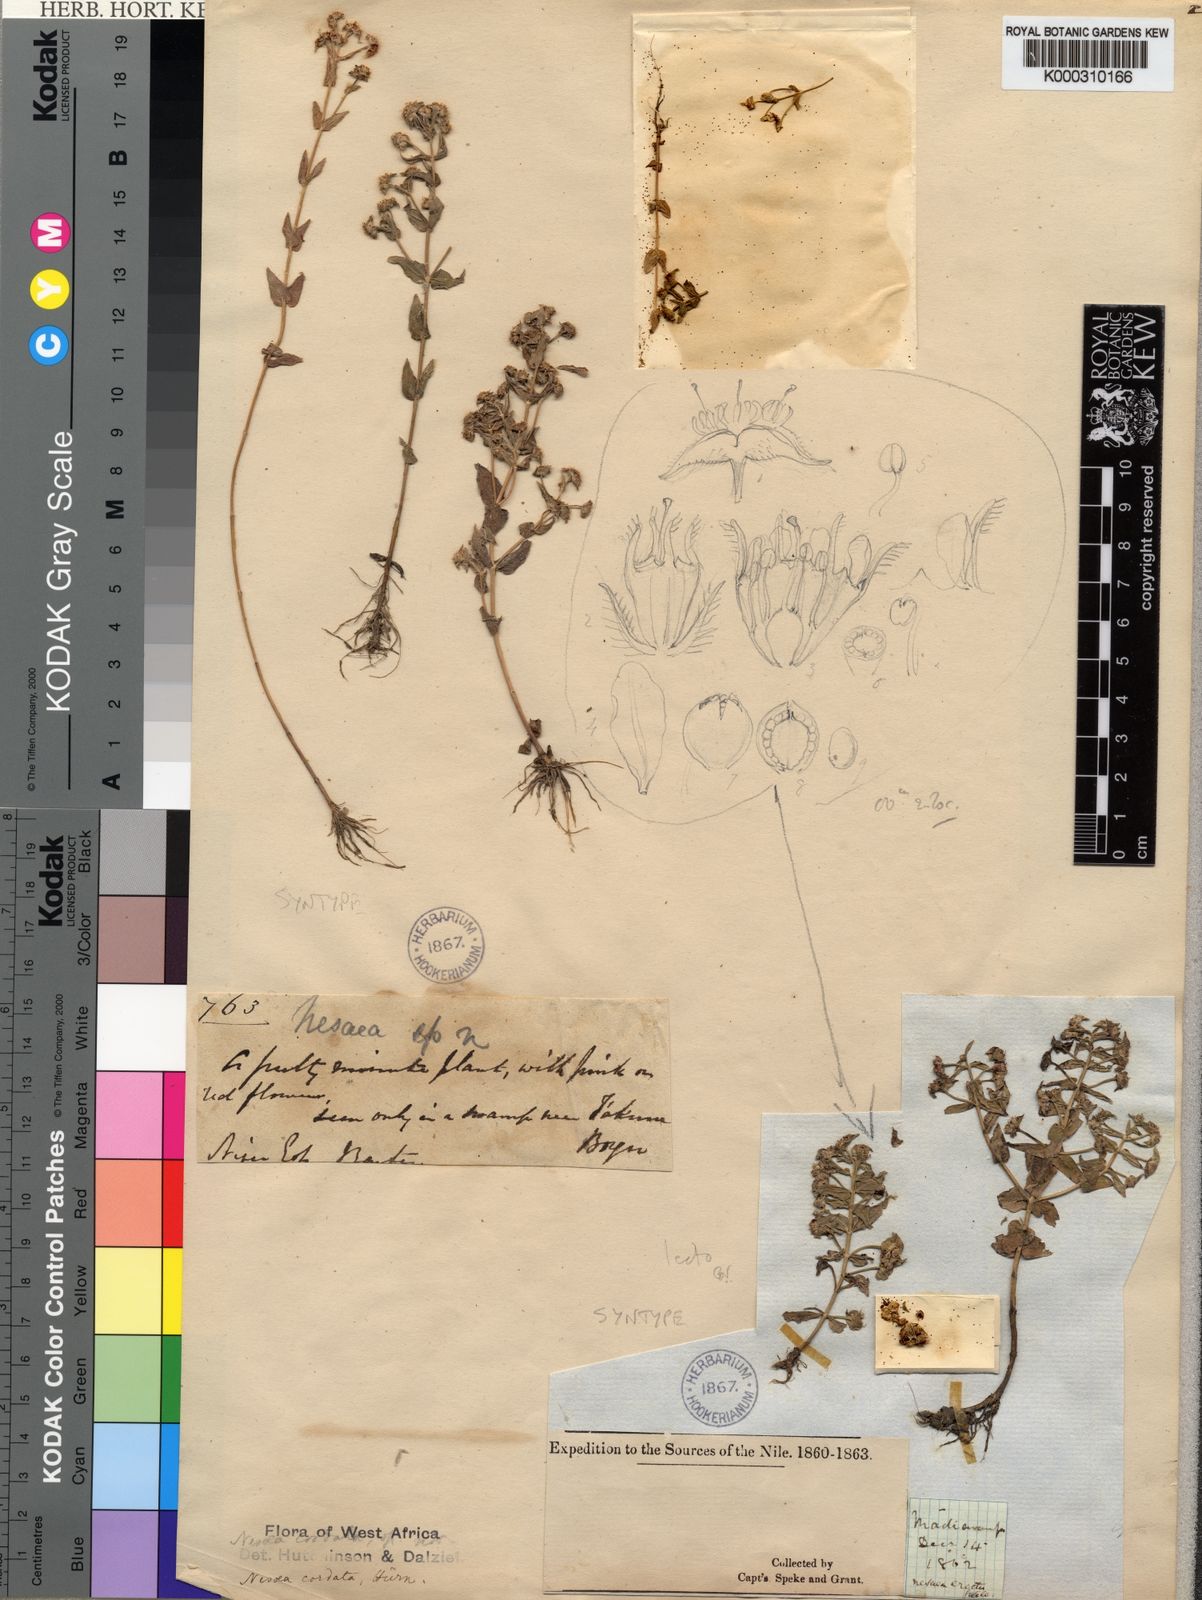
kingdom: Plantae
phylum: Tracheophyta
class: Magnoliopsida
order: Myrtales
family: Lythraceae
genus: Ammannia
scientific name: Ammannia involucrata
